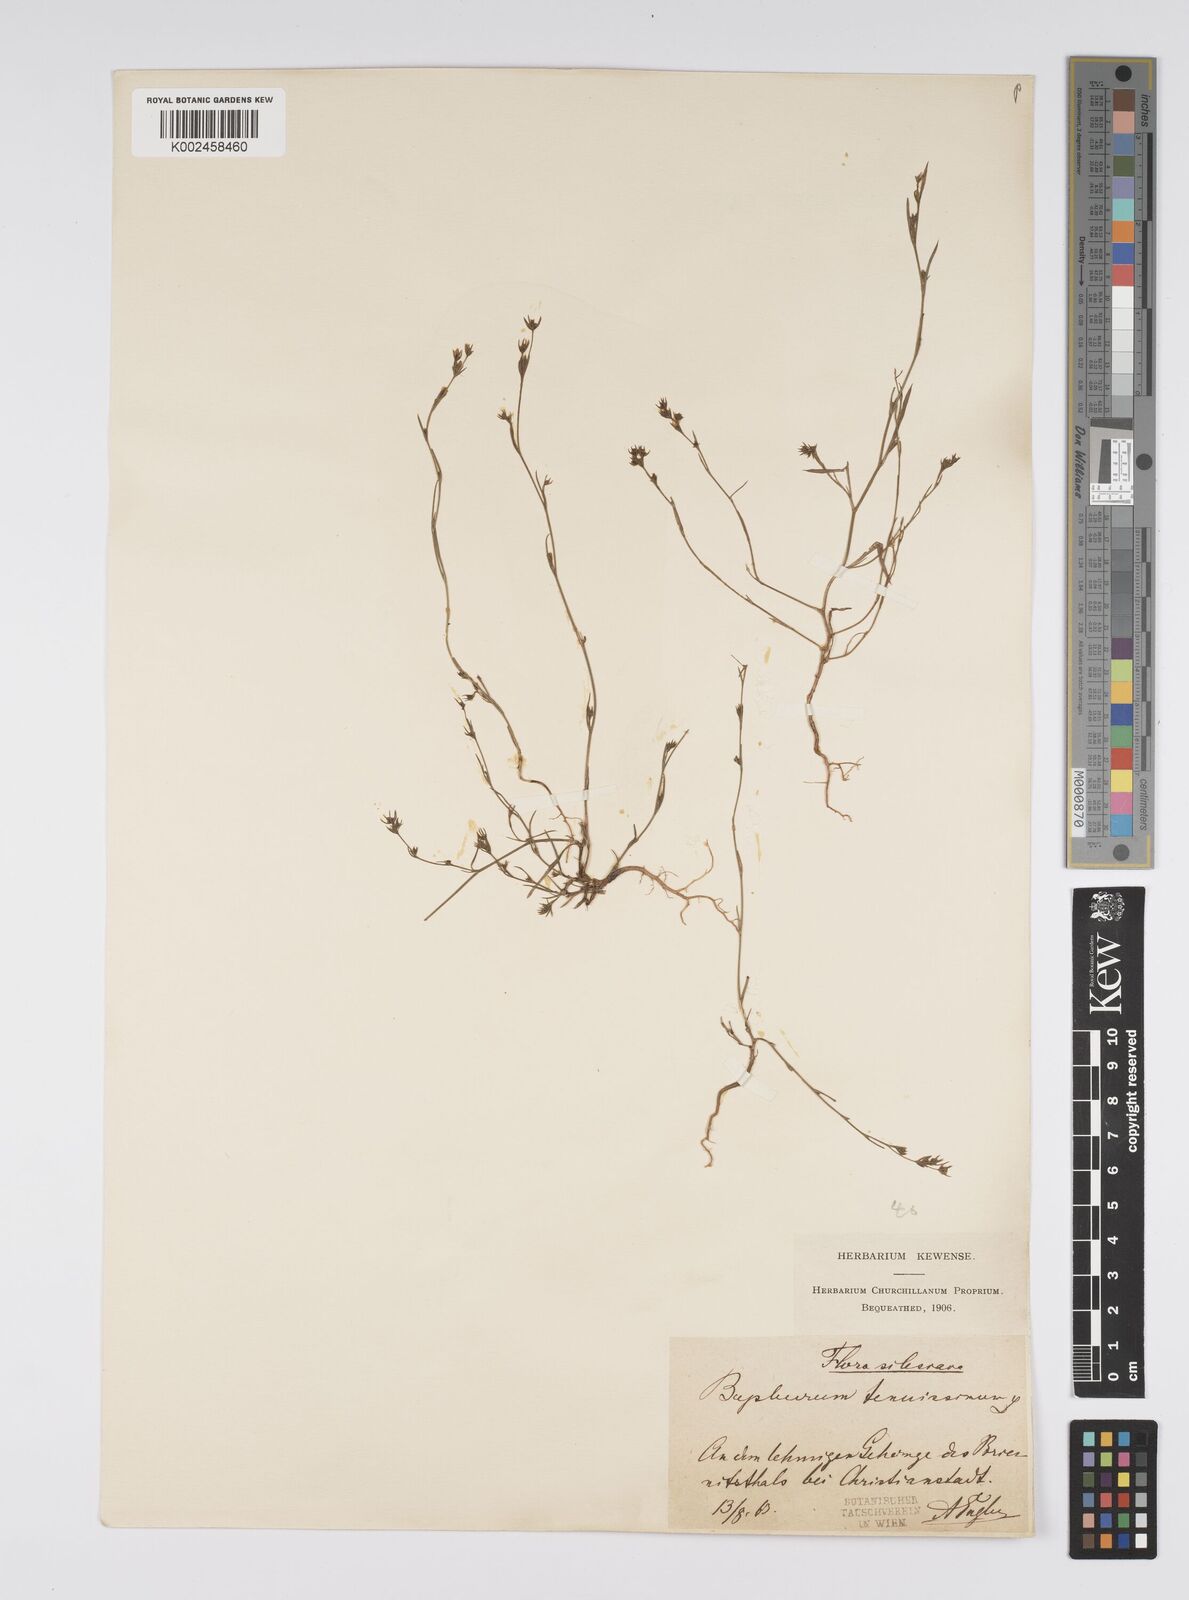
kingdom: Plantae
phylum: Tracheophyta
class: Magnoliopsida
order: Apiales
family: Apiaceae
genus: Bupleurum
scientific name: Bupleurum tenuissimum
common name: Slender hare's-ear
